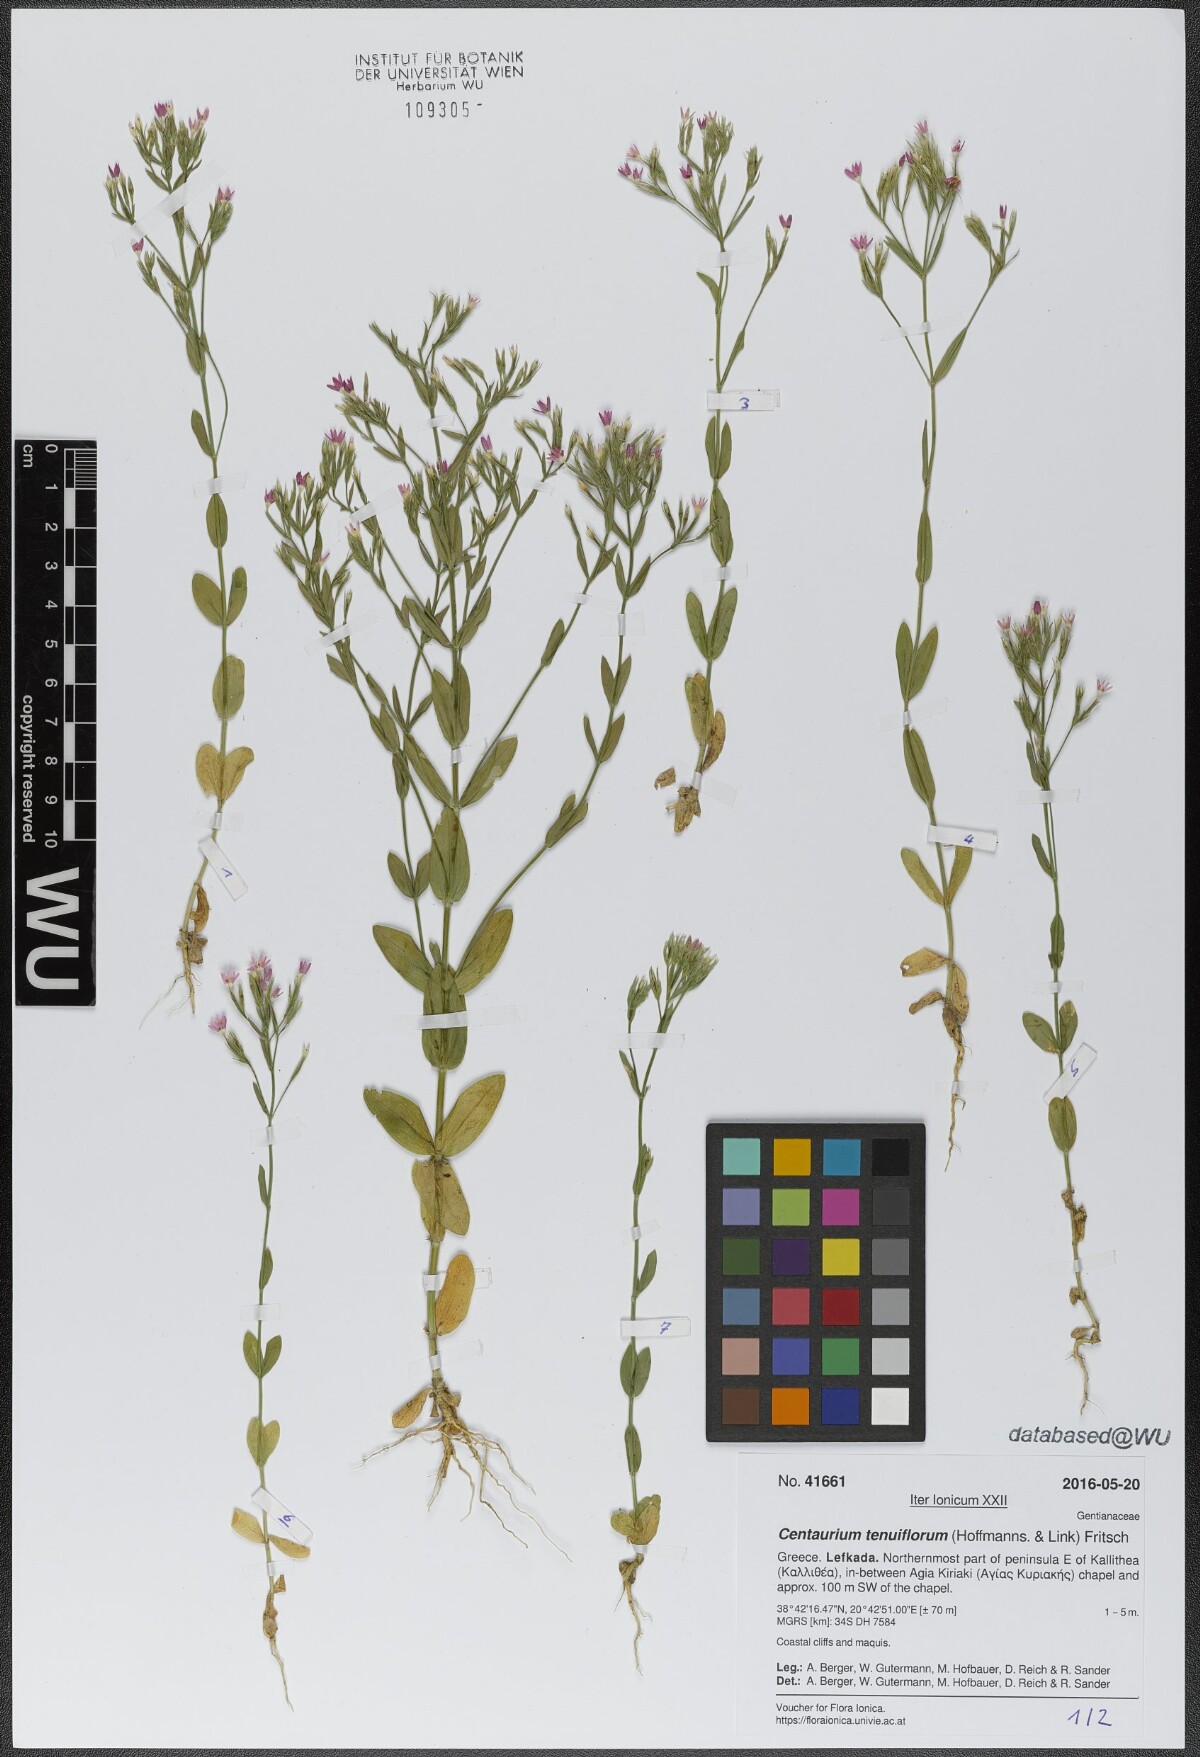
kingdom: Plantae
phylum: Tracheophyta
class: Magnoliopsida
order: Gentianales
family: Gentianaceae
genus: Centaurium
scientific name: Centaurium tenuiflorum
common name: Slender centaury
